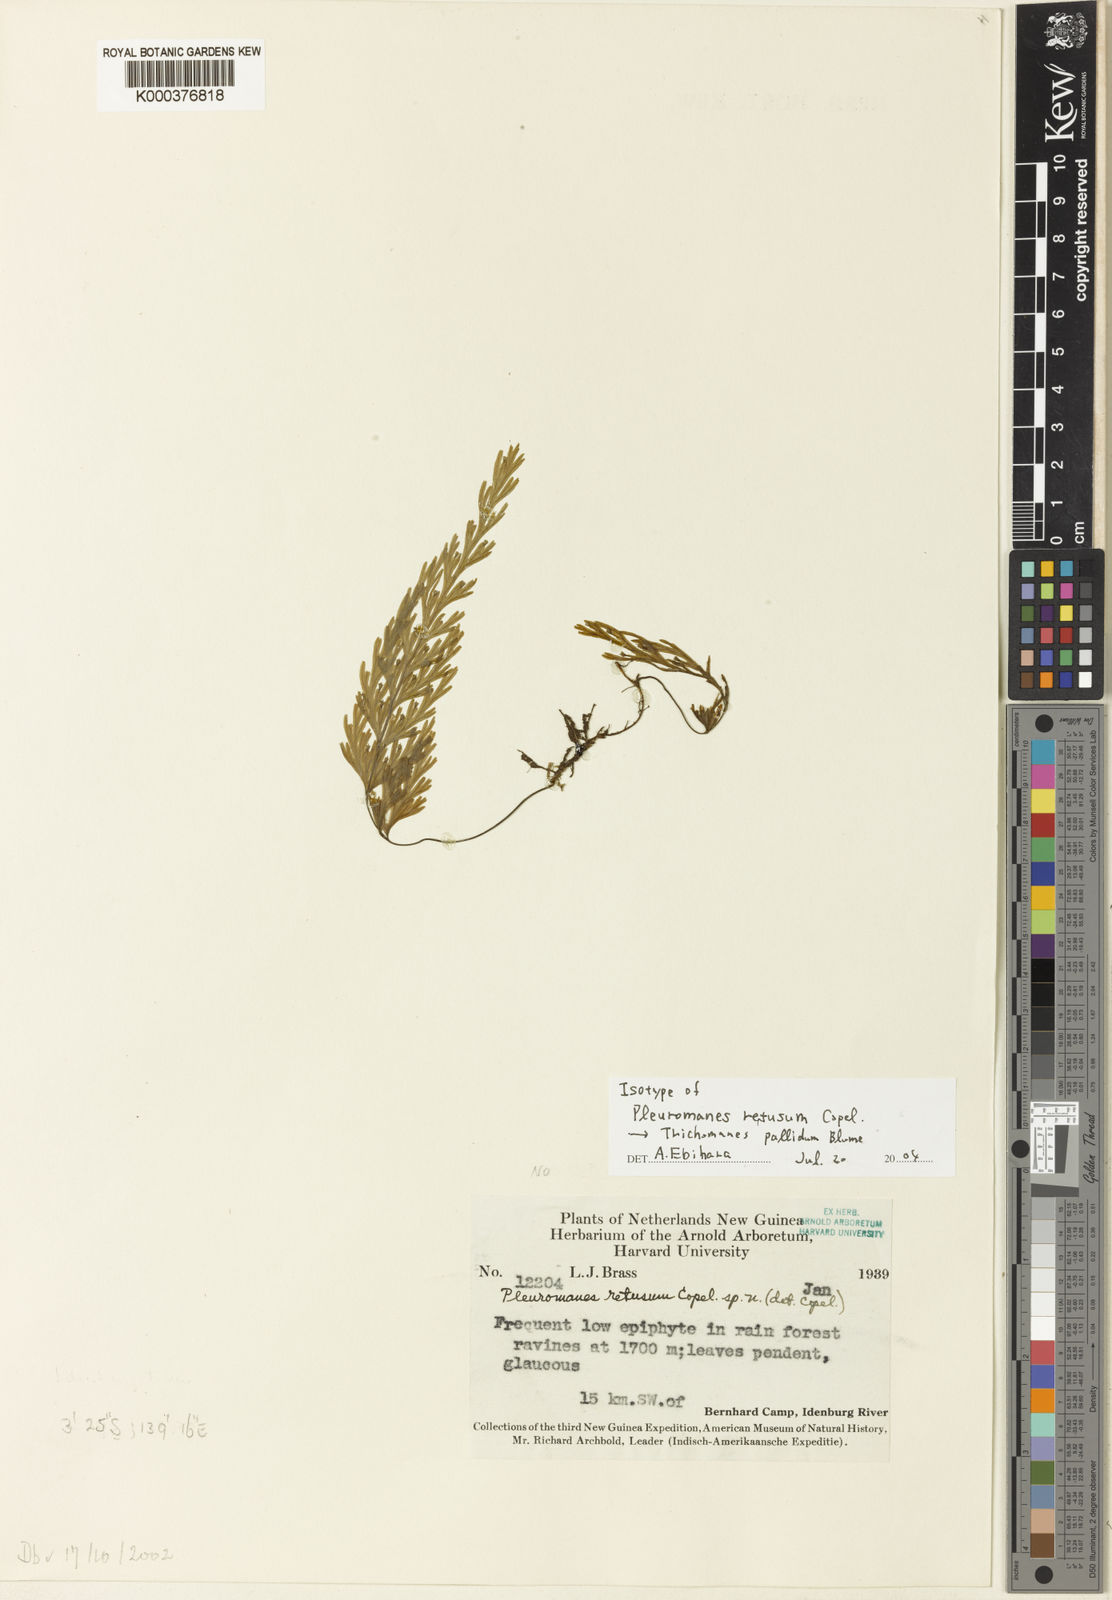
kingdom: Plantae
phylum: Tracheophyta
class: Polypodiopsida
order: Hymenophyllales
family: Hymenophyllaceae
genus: Hymenophyllum
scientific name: Hymenophyllum pallidum
